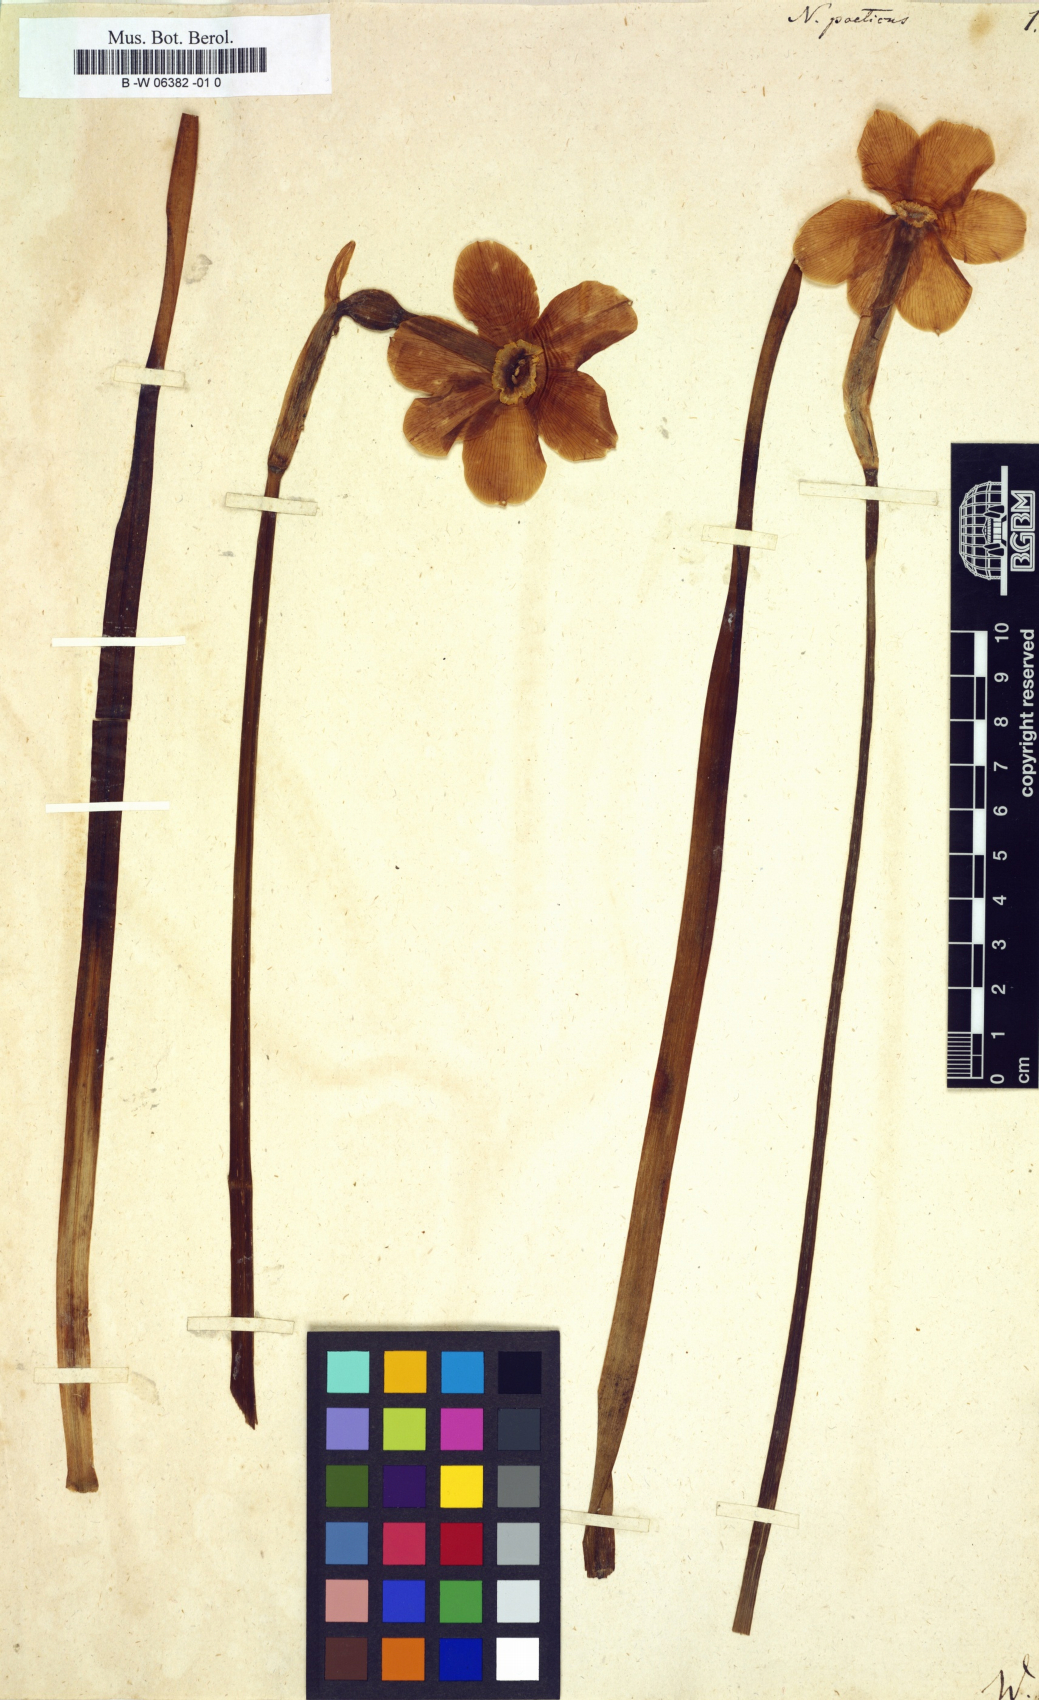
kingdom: Plantae
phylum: Tracheophyta
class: Liliopsida
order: Asparagales
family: Amaryllidaceae
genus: Narcissus
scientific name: Narcissus poeticus
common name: Pheasant's-eye daffodil
